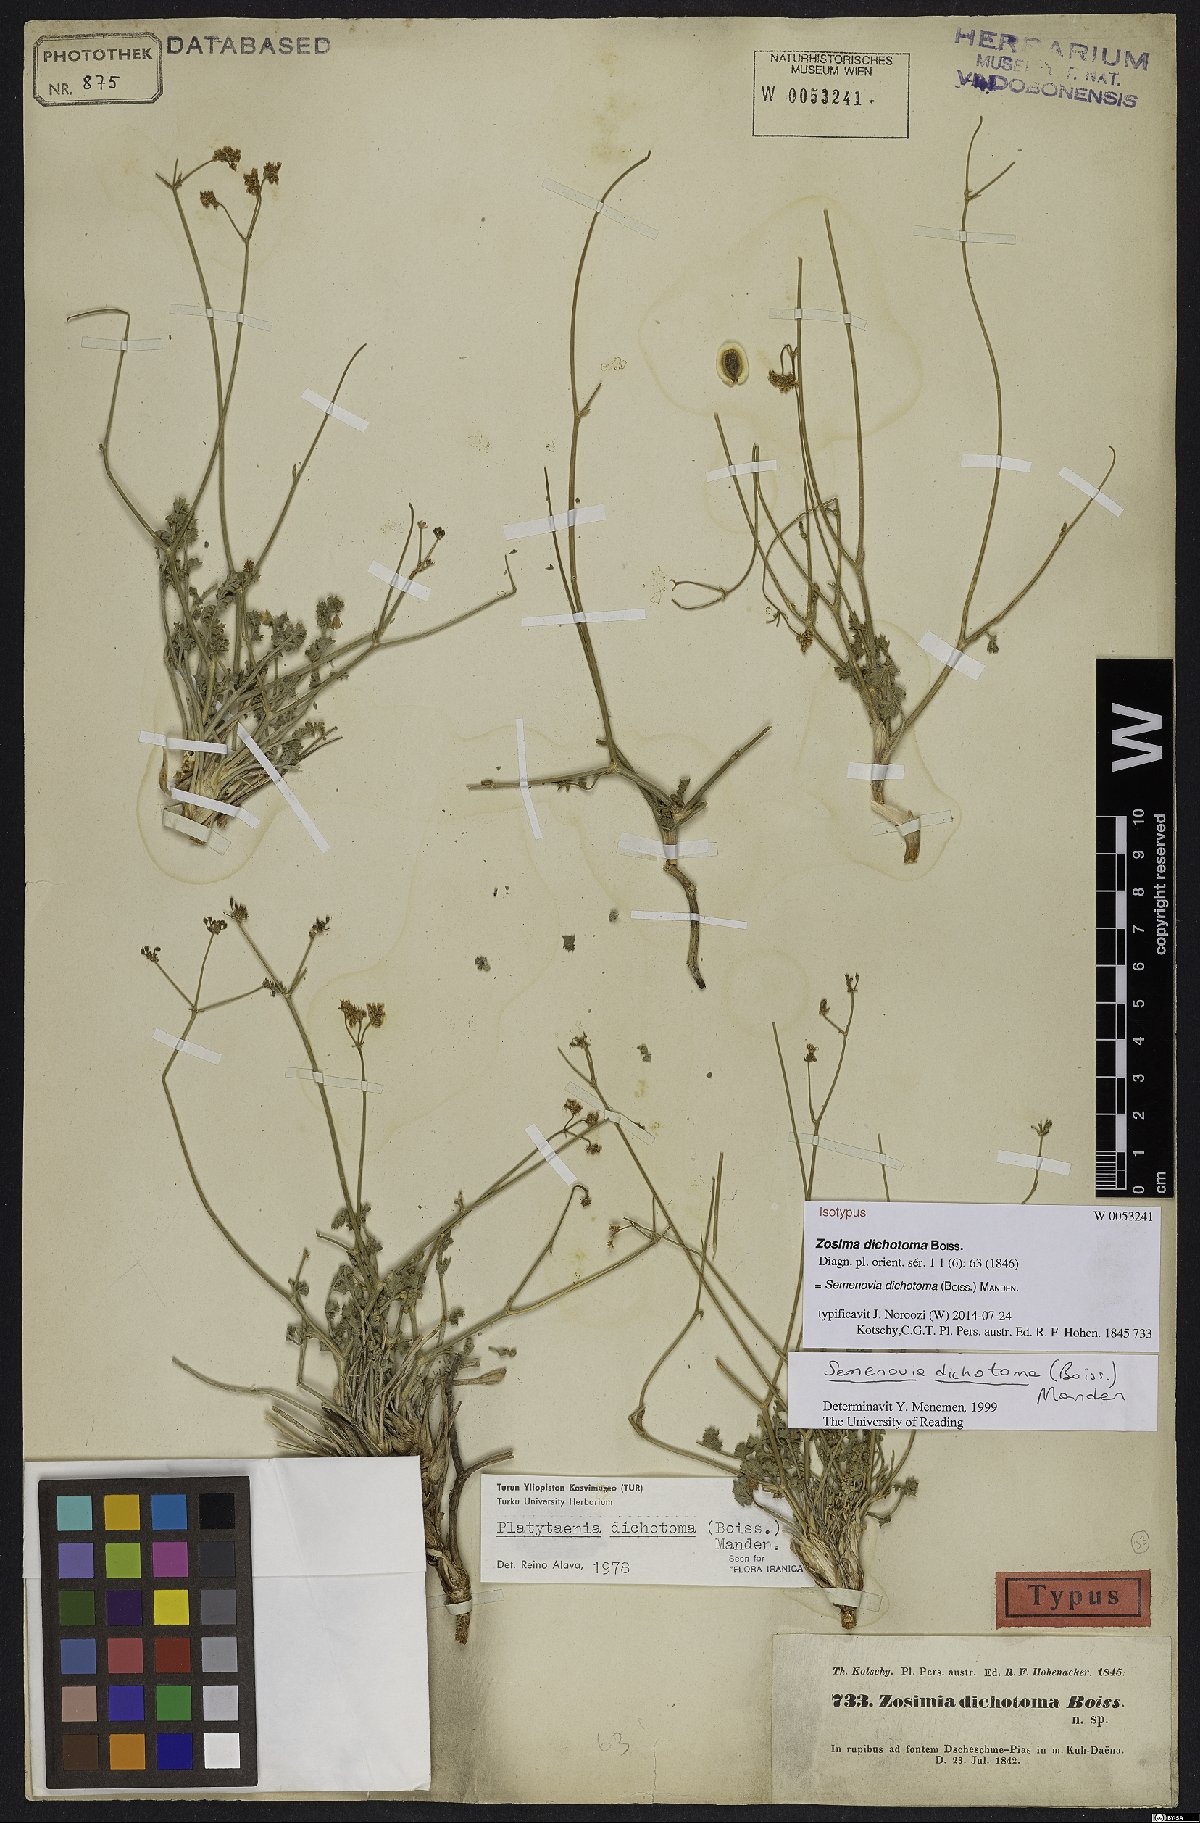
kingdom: Plantae
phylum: Tracheophyta
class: Magnoliopsida
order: Apiales
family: Apiaceae
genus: Semenovia
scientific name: Semenovia dichotoma
